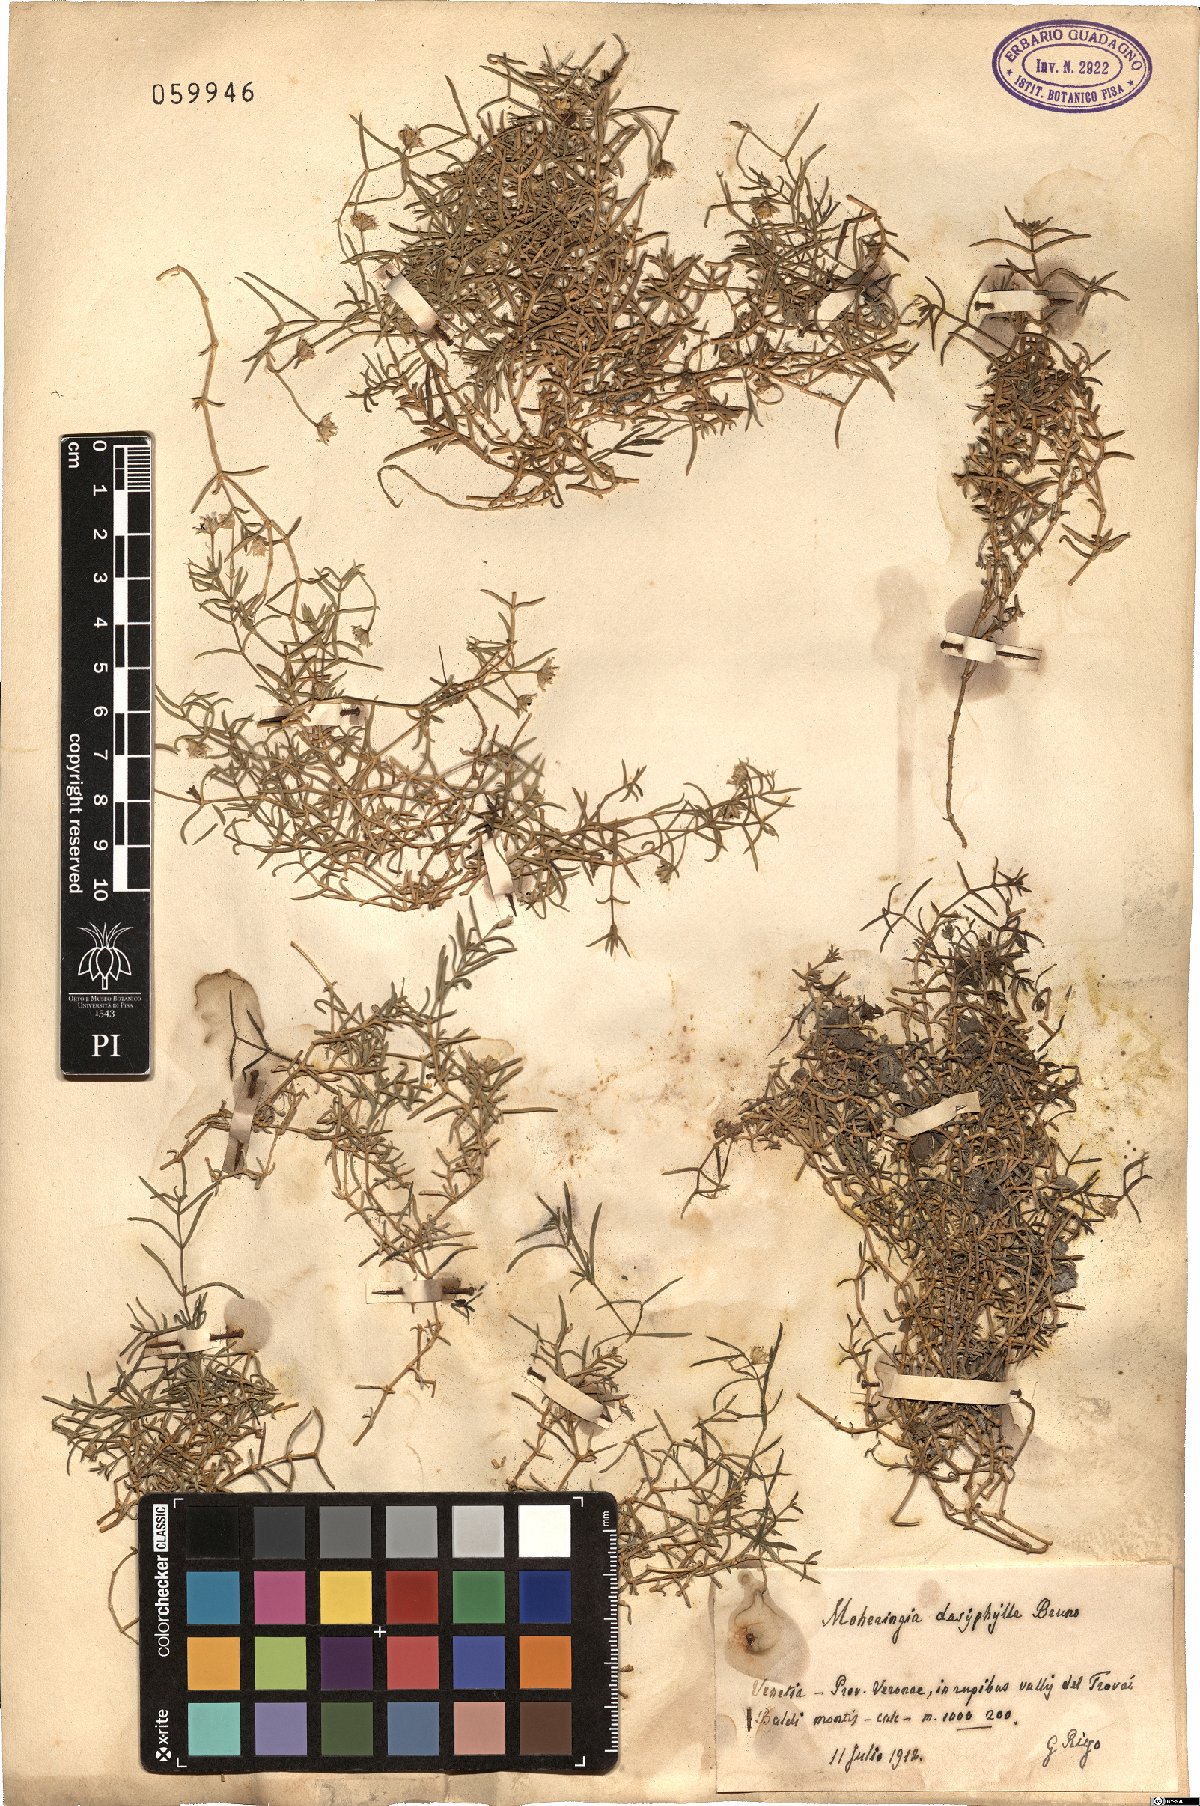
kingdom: Plantae
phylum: Tracheophyta
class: Magnoliopsida
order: Caryophyllales
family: Caryophyllaceae
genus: Moehringia
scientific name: Moehringia sedoides
